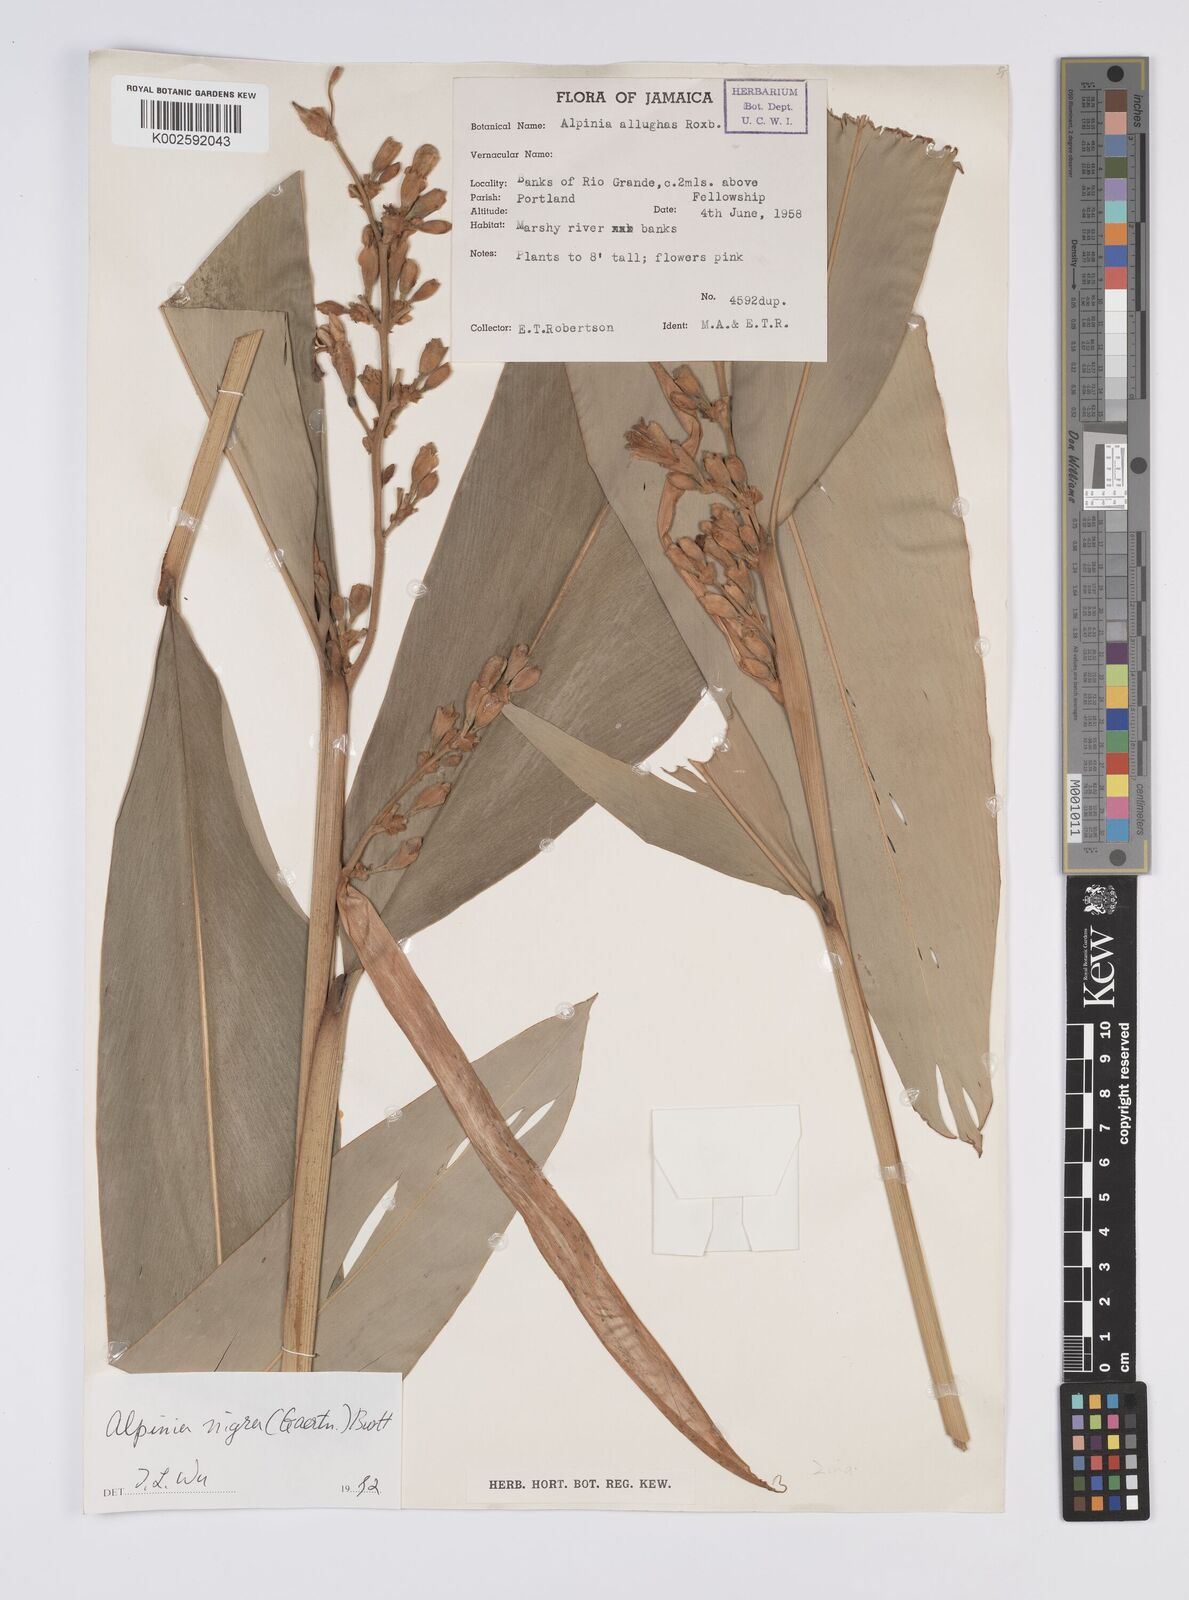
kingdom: Plantae
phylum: Tracheophyta
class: Liliopsida
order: Zingiberales
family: Zingiberaceae
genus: Alpinia
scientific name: Alpinia nigra
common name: Black fruited galanga
